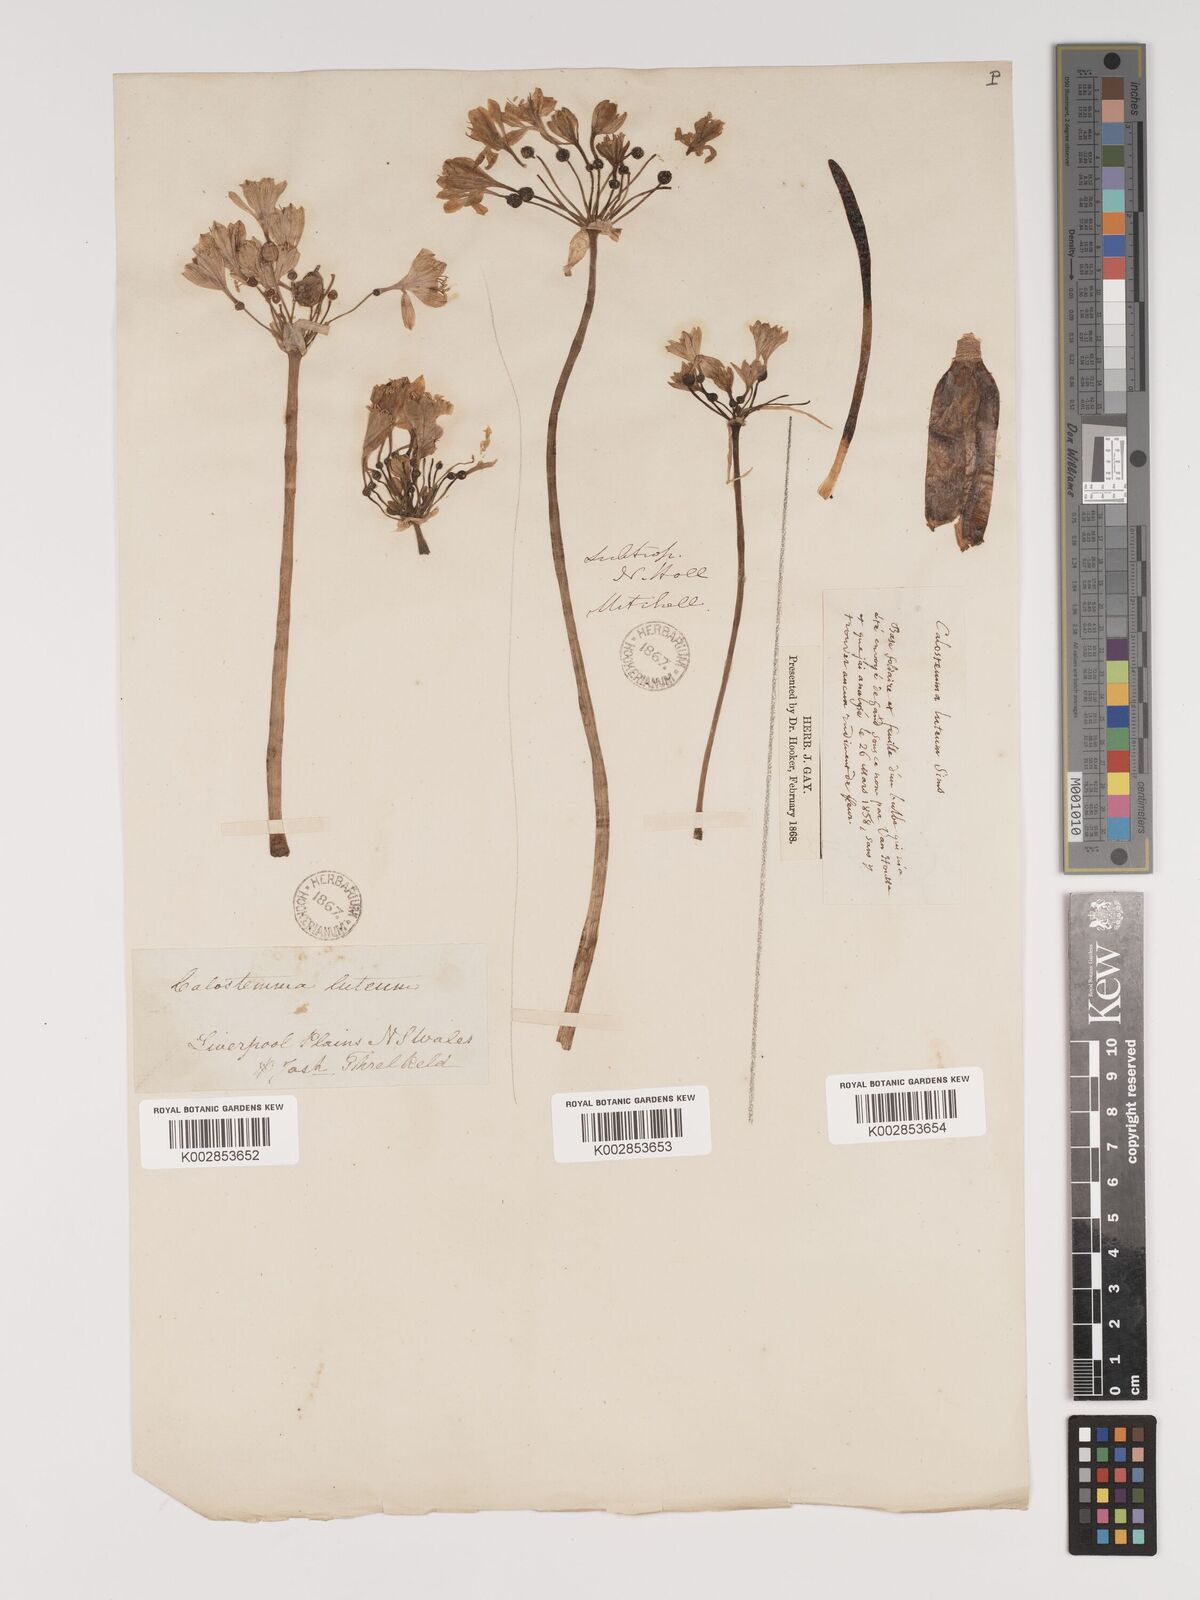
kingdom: Plantae
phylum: Tracheophyta
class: Liliopsida
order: Asparagales
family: Amaryllidaceae
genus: Calostemma
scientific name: Calostemma luteum
